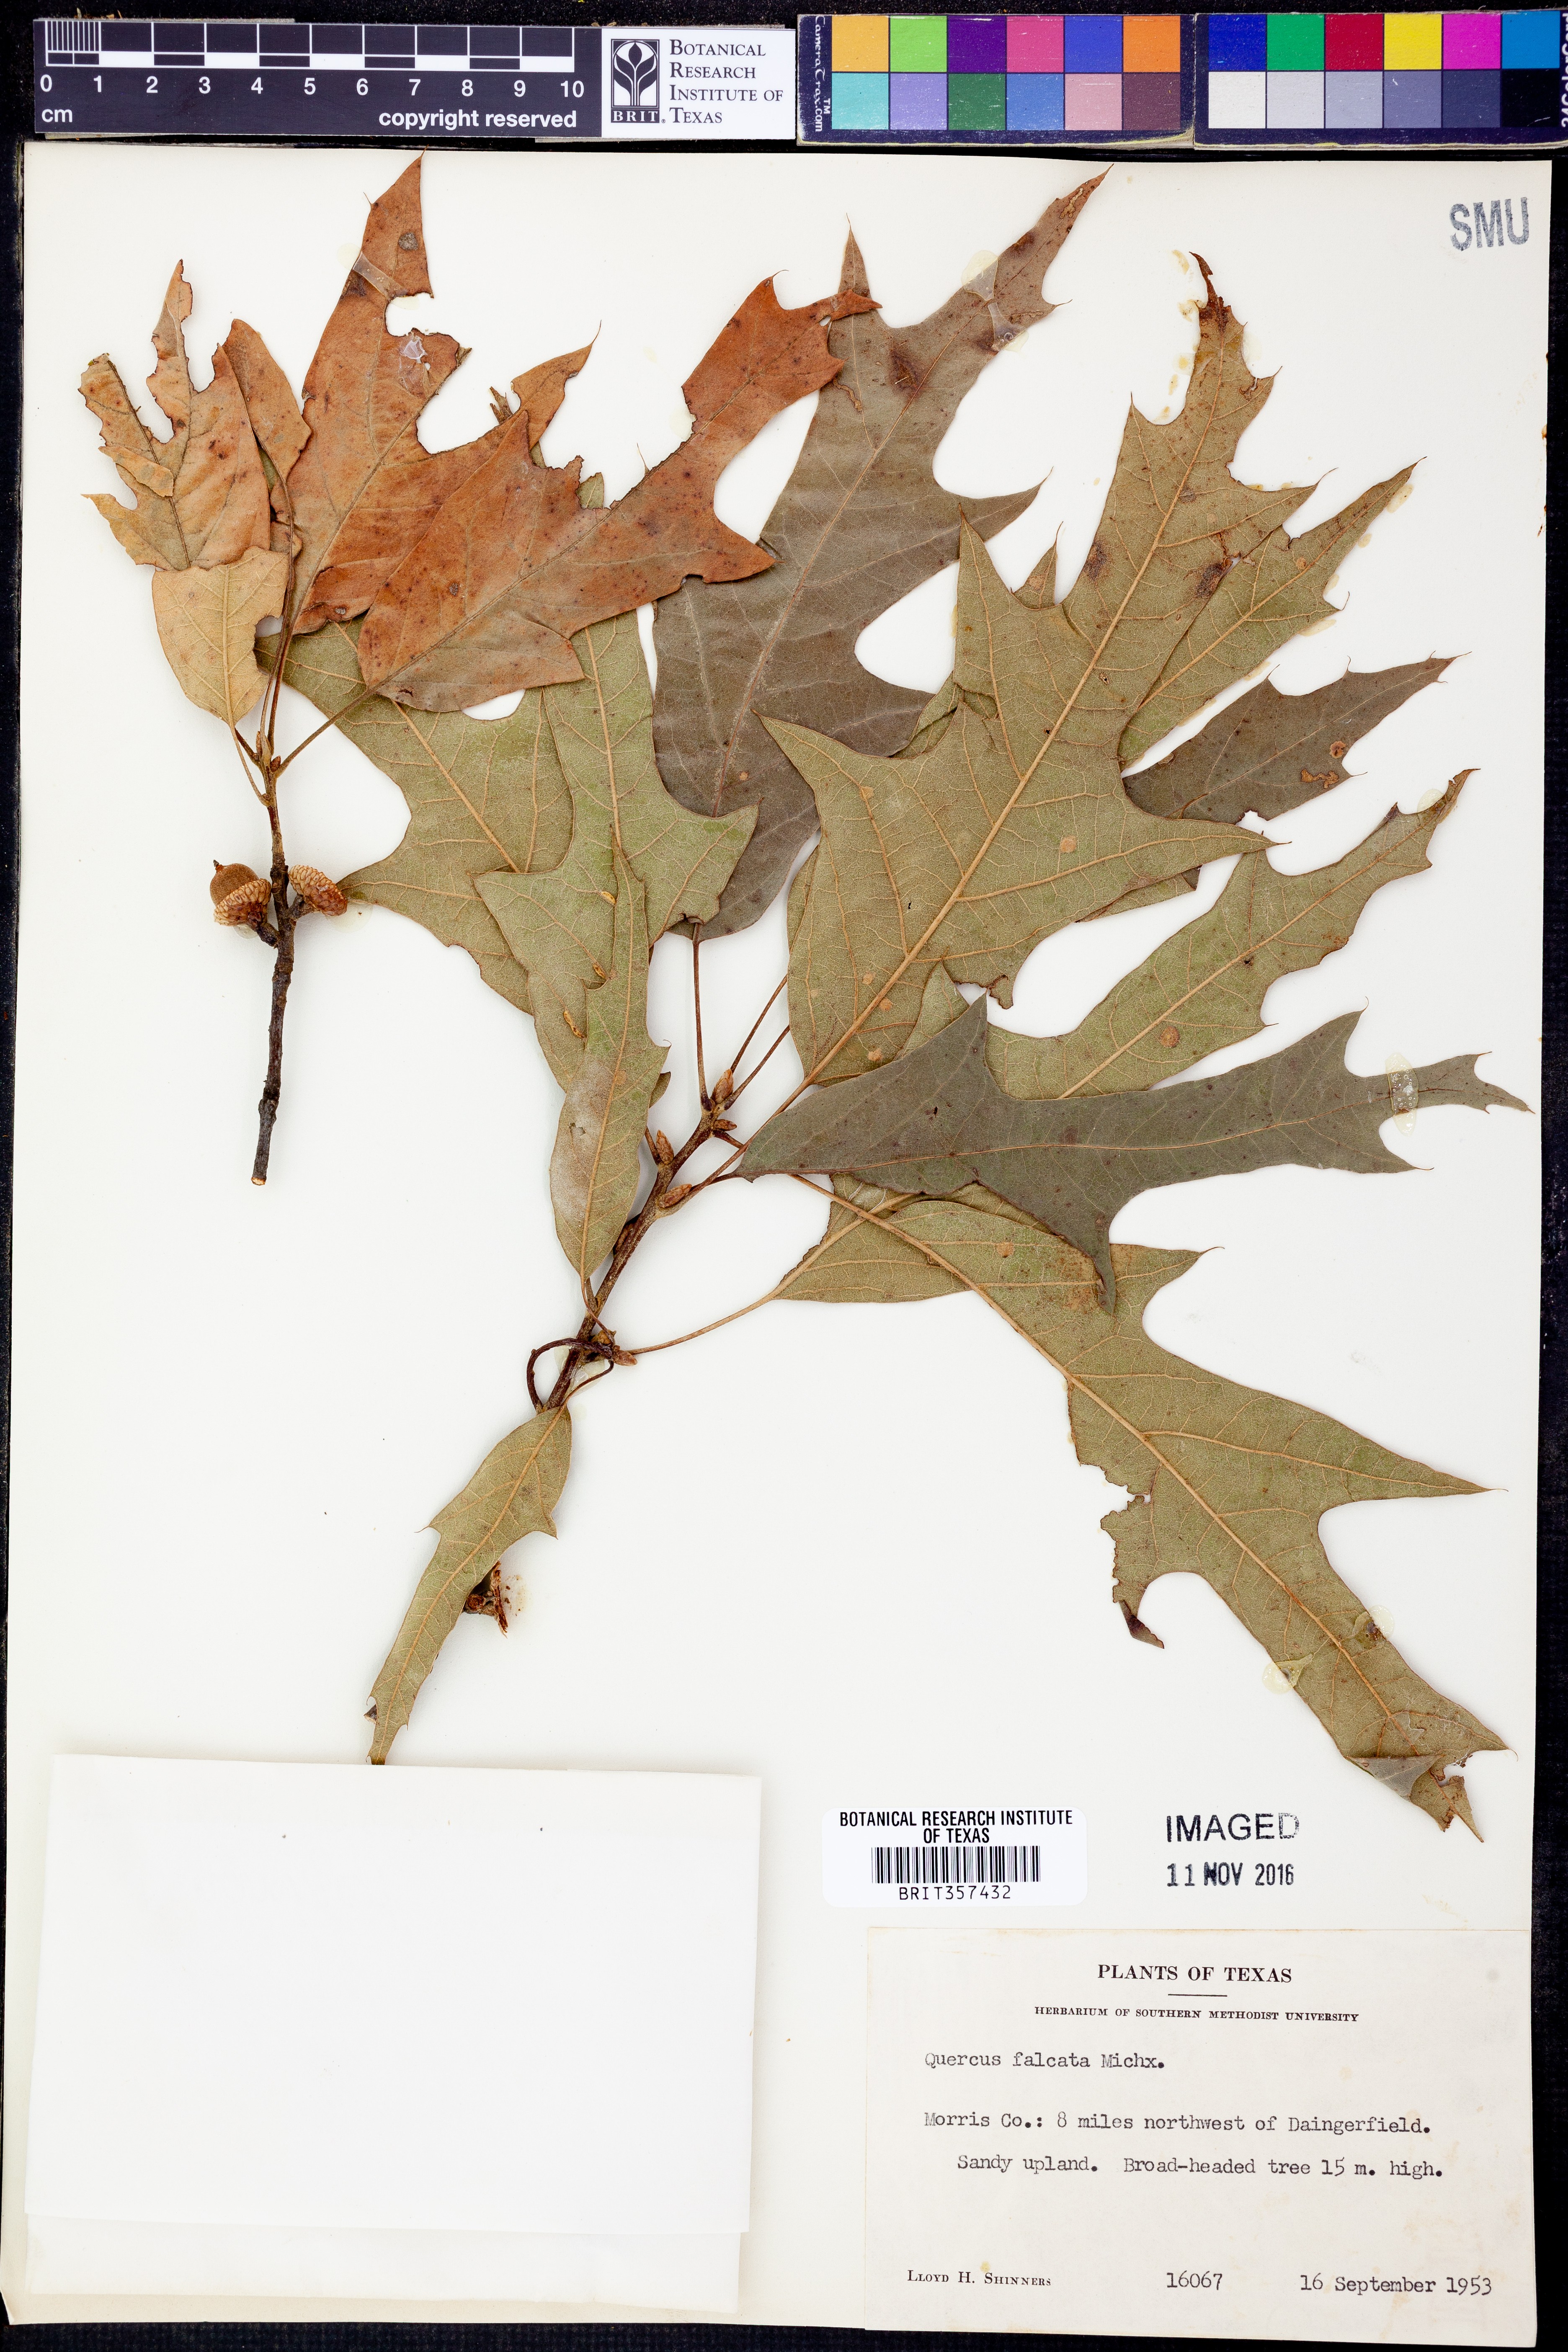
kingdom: Plantae
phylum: Tracheophyta
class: Magnoliopsida
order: Fagales
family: Fagaceae
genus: Quercus
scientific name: Quercus falcata
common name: Southern red oak
